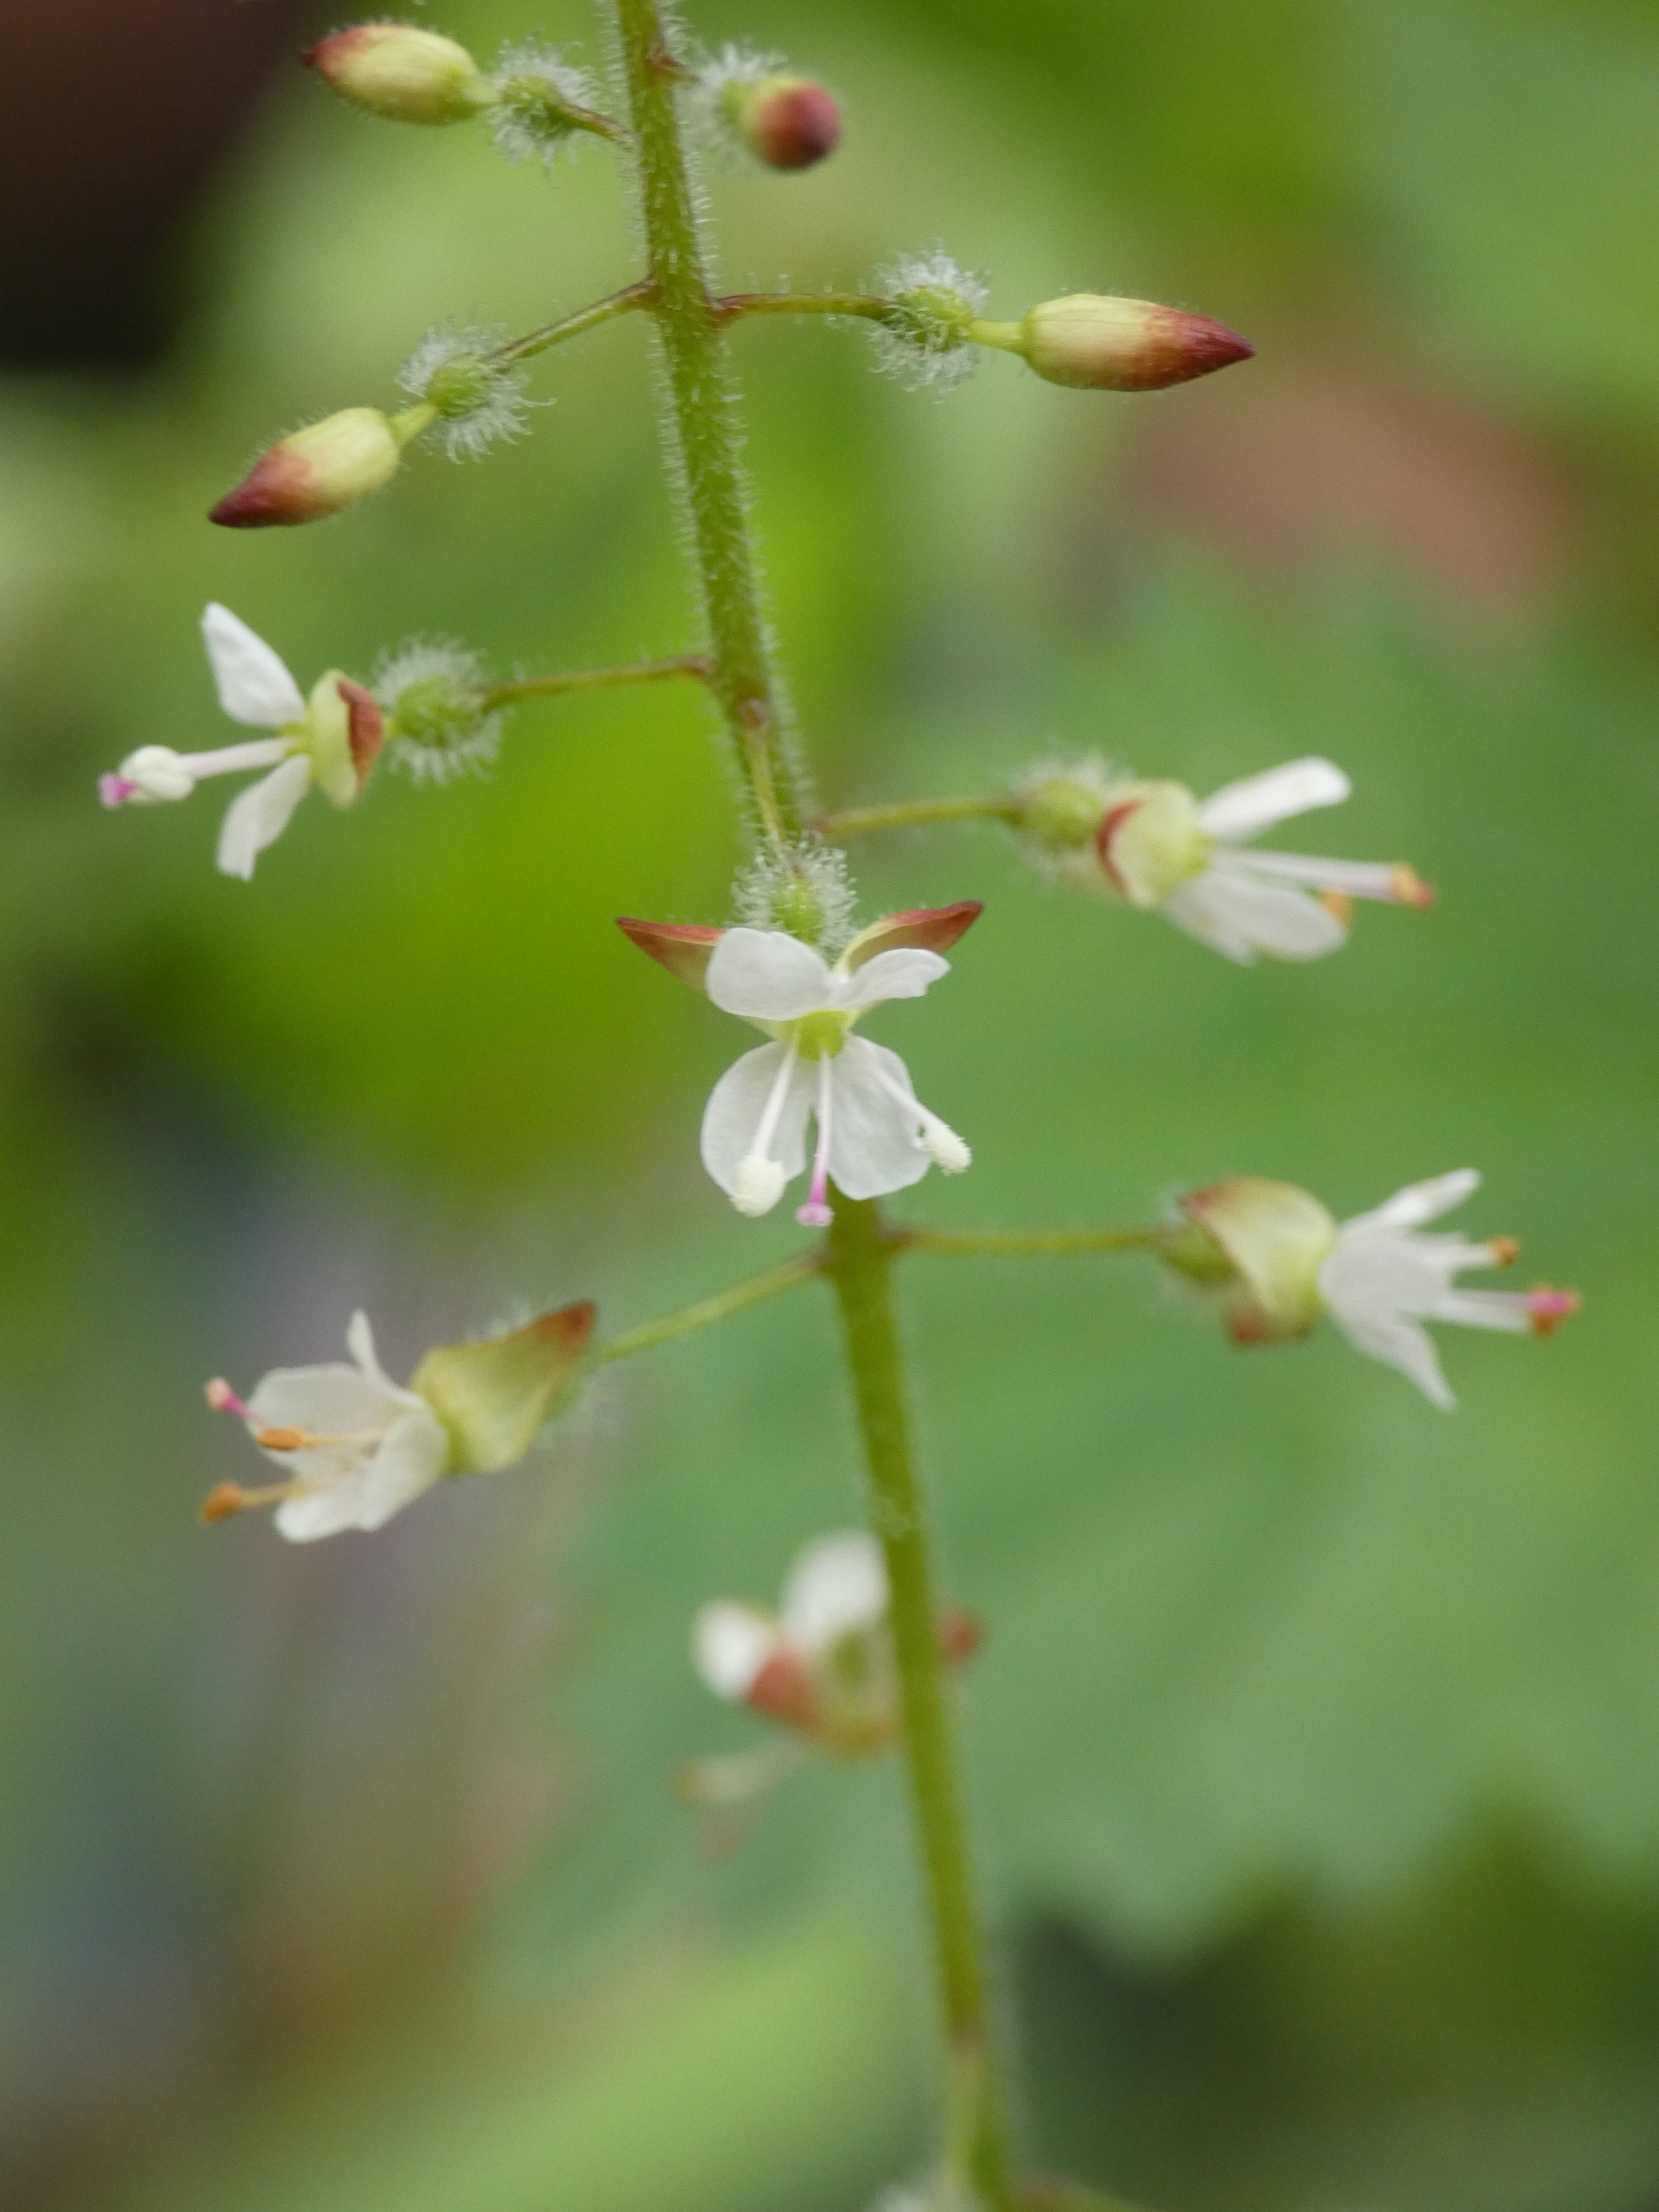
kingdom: Plantae
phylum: Tracheophyta
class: Magnoliopsida
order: Myrtales
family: Onagraceae
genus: Circaea
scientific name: Circaea lutetiana
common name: Dunet steffensurt
